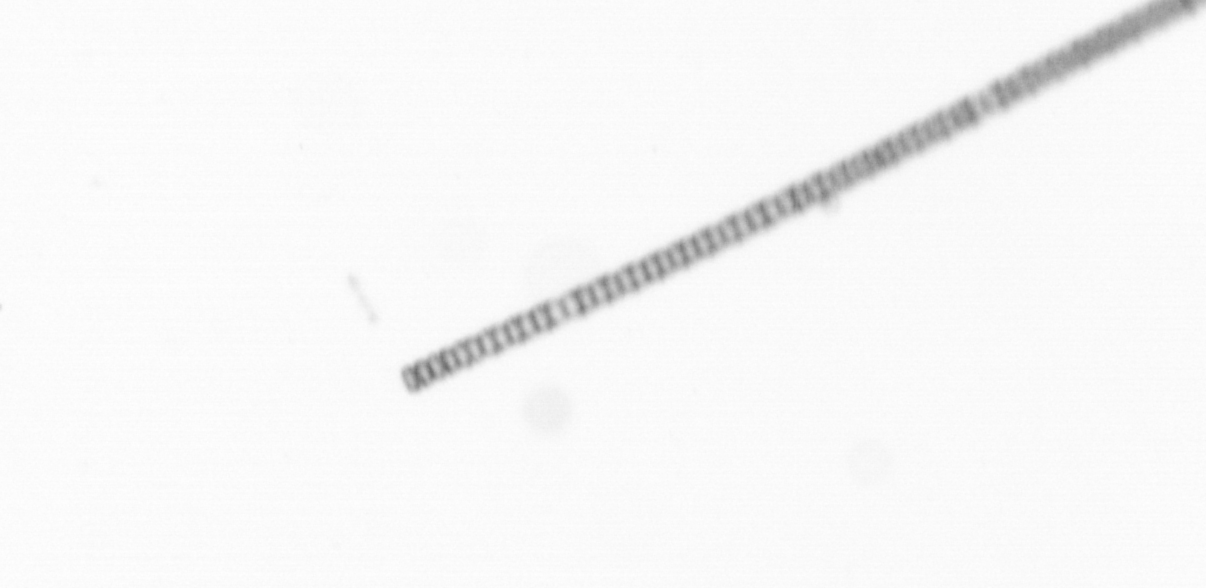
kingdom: Chromista
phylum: Ochrophyta
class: Bacillariophyceae
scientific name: Bacillariophyceae
